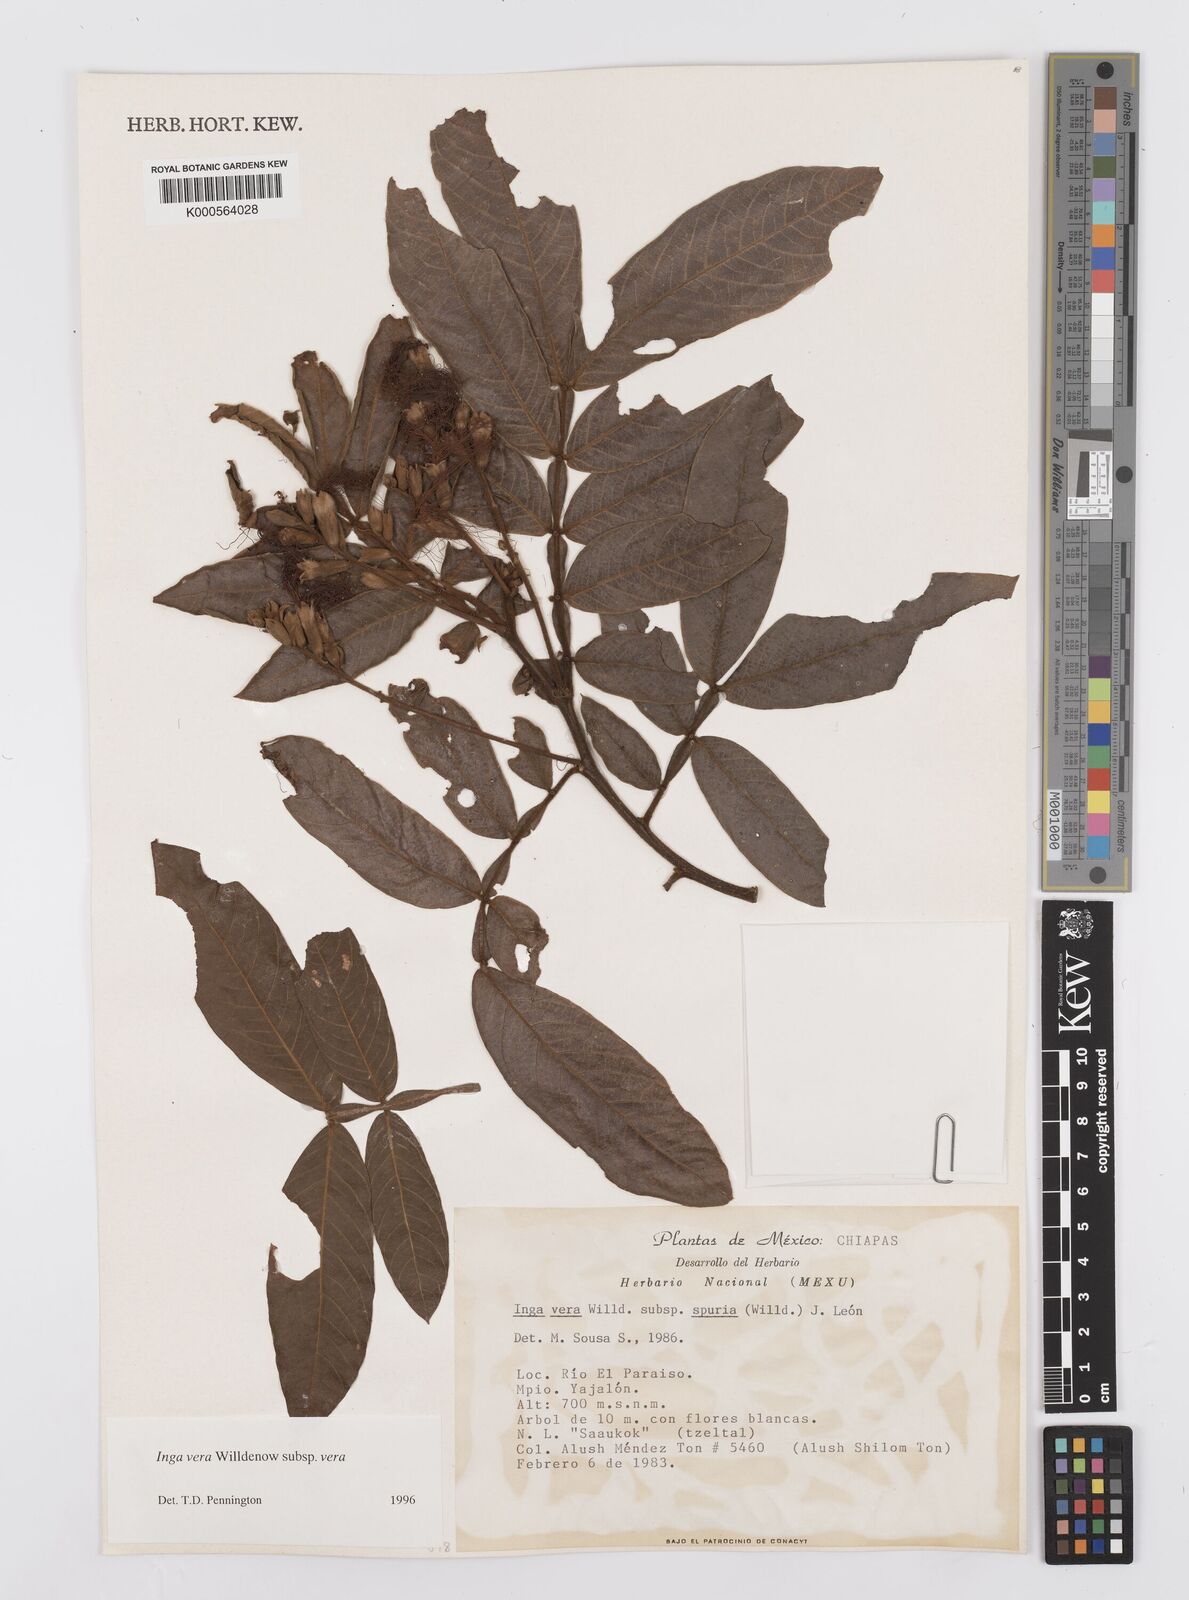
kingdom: Plantae
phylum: Tracheophyta
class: Magnoliopsida
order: Fabales
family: Fabaceae
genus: Inga
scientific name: Inga vera
